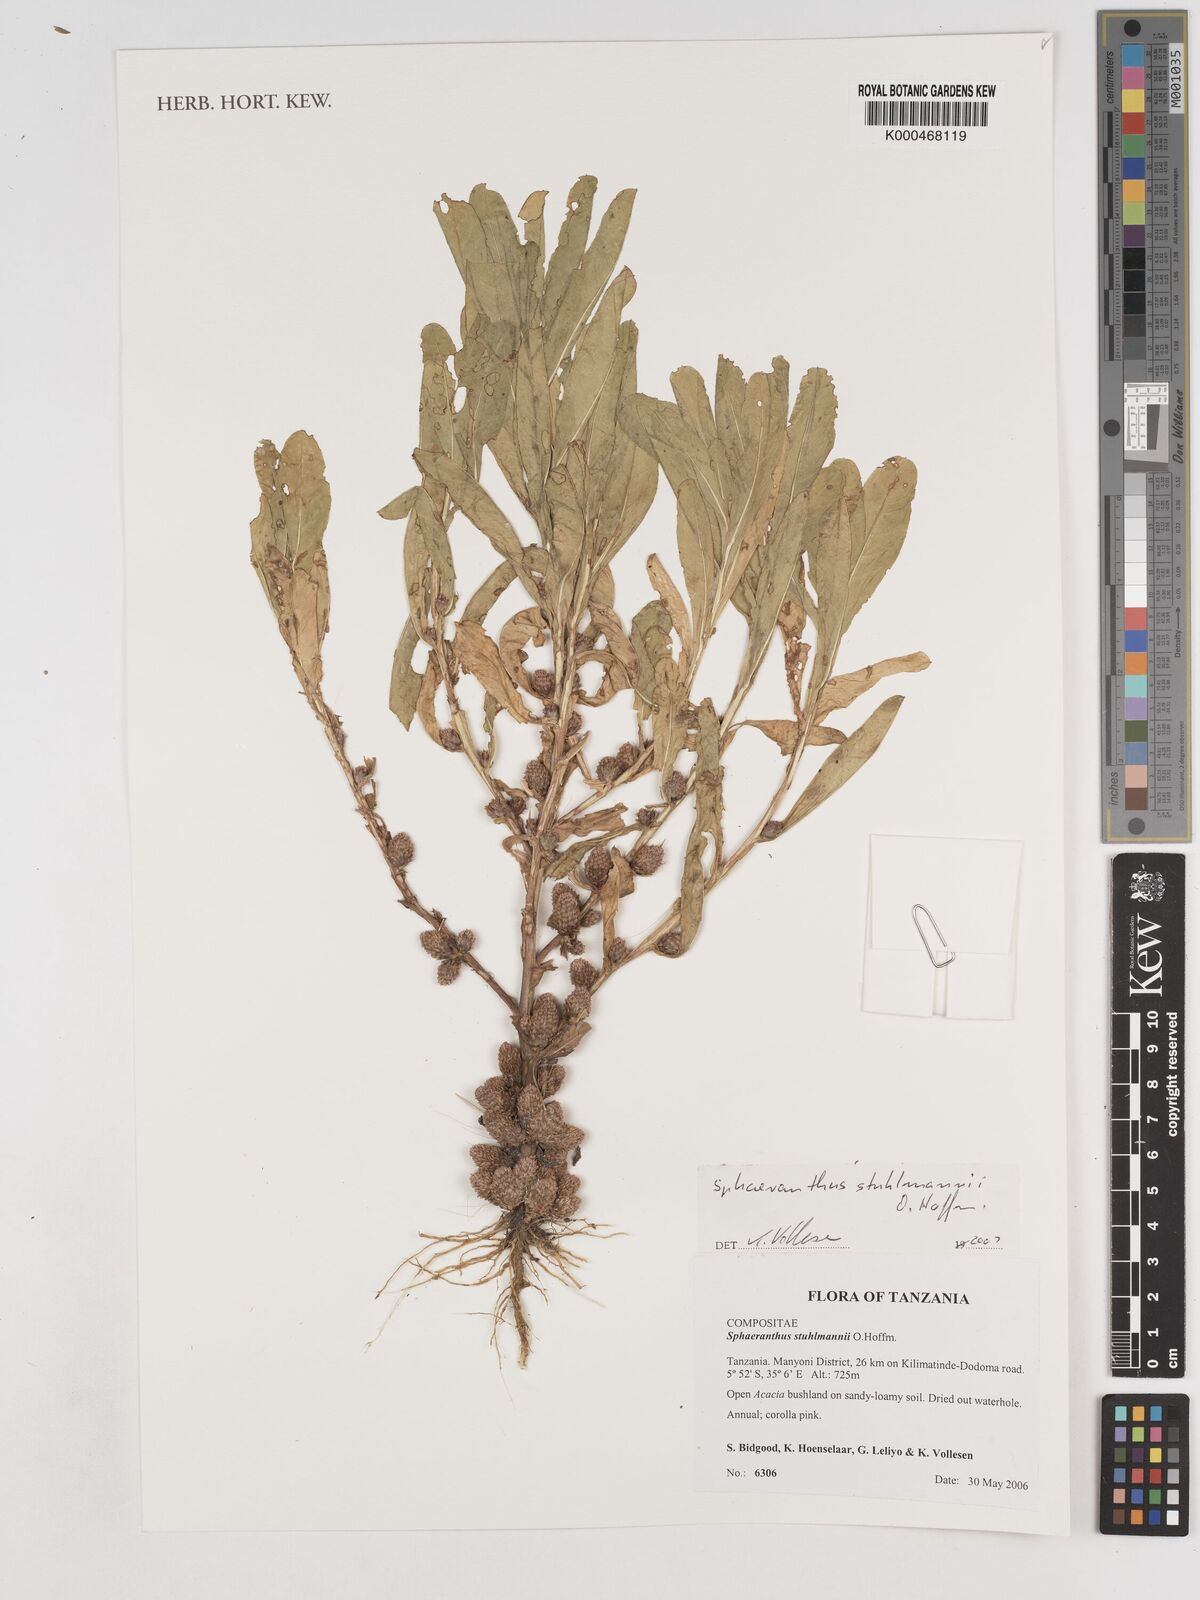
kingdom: Plantae
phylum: Tracheophyta
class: Magnoliopsida
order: Asterales
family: Asteraceae
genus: Sphaeranthus
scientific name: Sphaeranthus stuhlmannii
